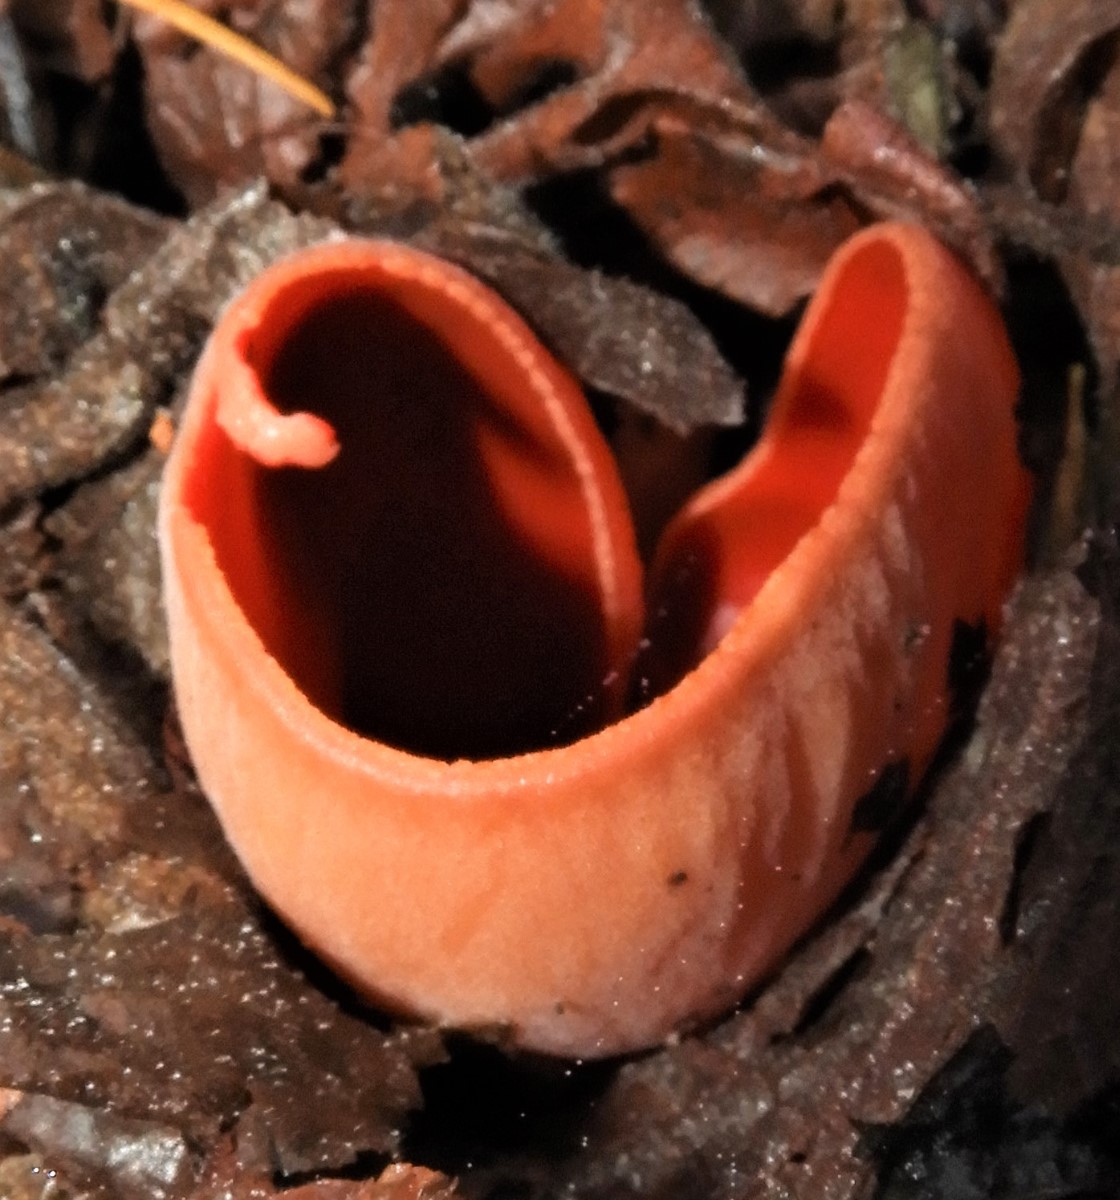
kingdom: Fungi
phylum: Ascomycota
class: Pezizomycetes
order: Pezizales
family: Sarcoscyphaceae
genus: Sarcoscypha
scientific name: Sarcoscypha austriaca
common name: krølhåret pragtbæger
